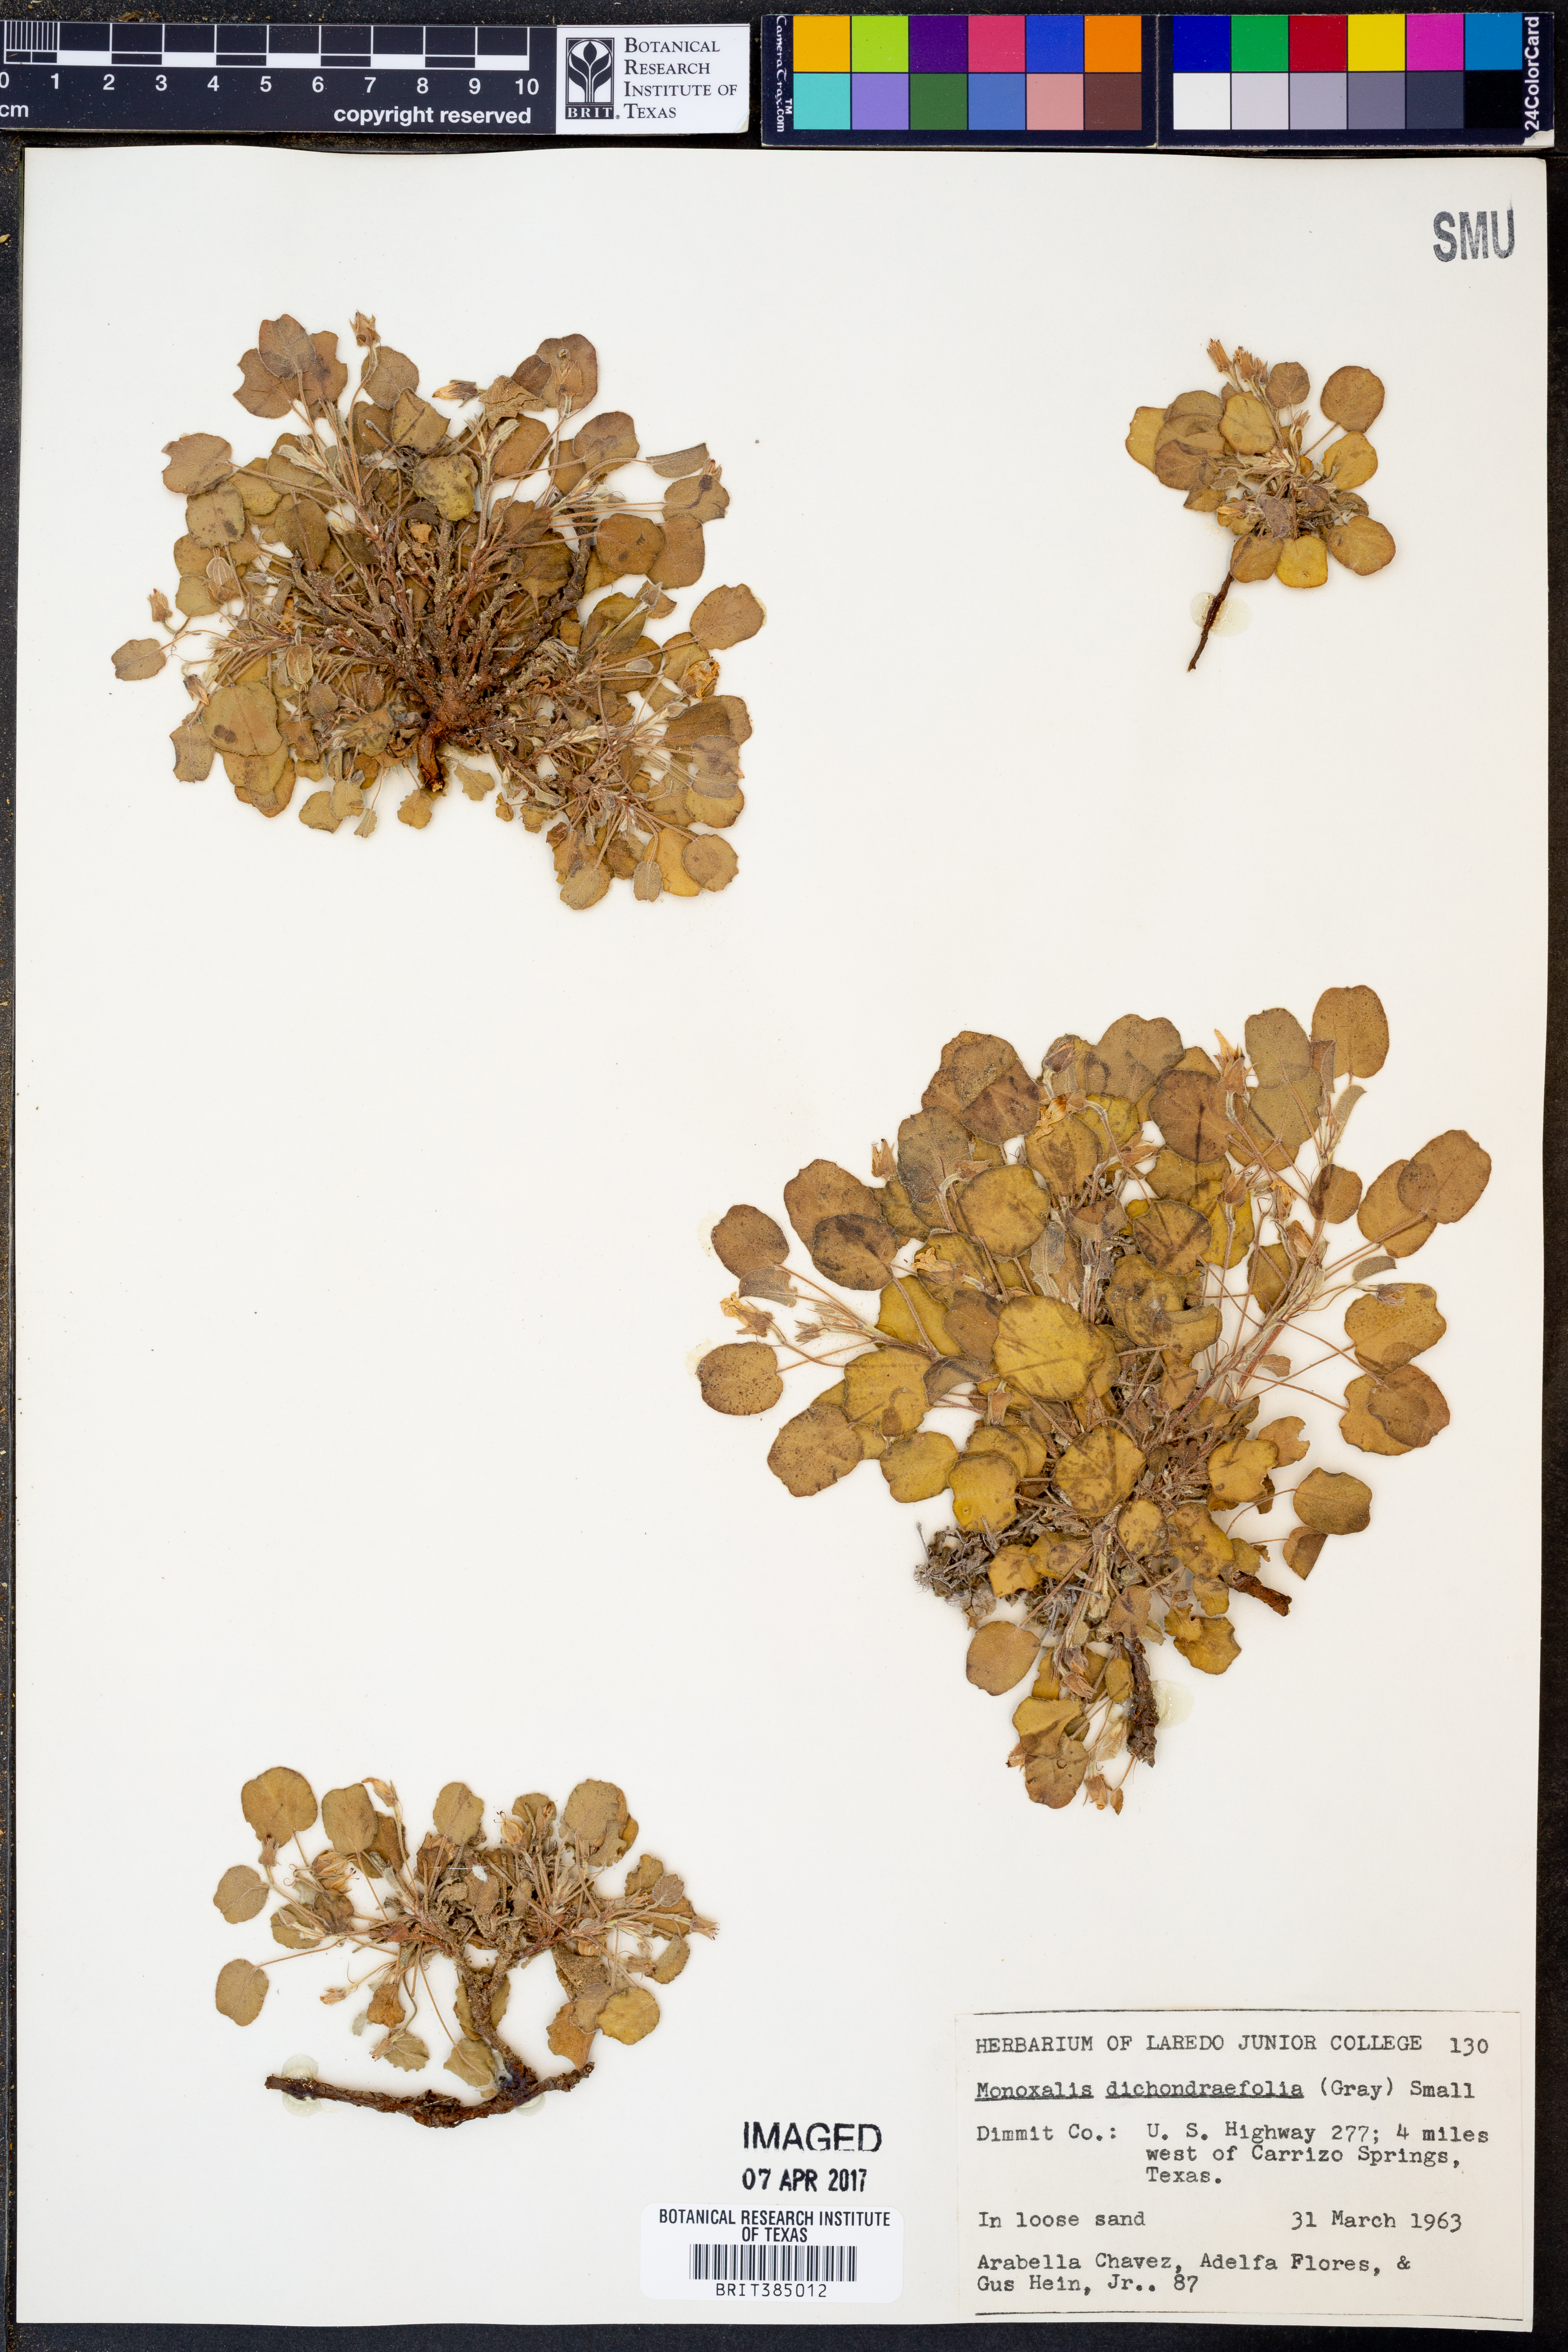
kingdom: Plantae
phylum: Tracheophyta
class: Magnoliopsida
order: Oxalidales
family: Oxalidaceae
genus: Oxalis
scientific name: Oxalis dichondrifolia
